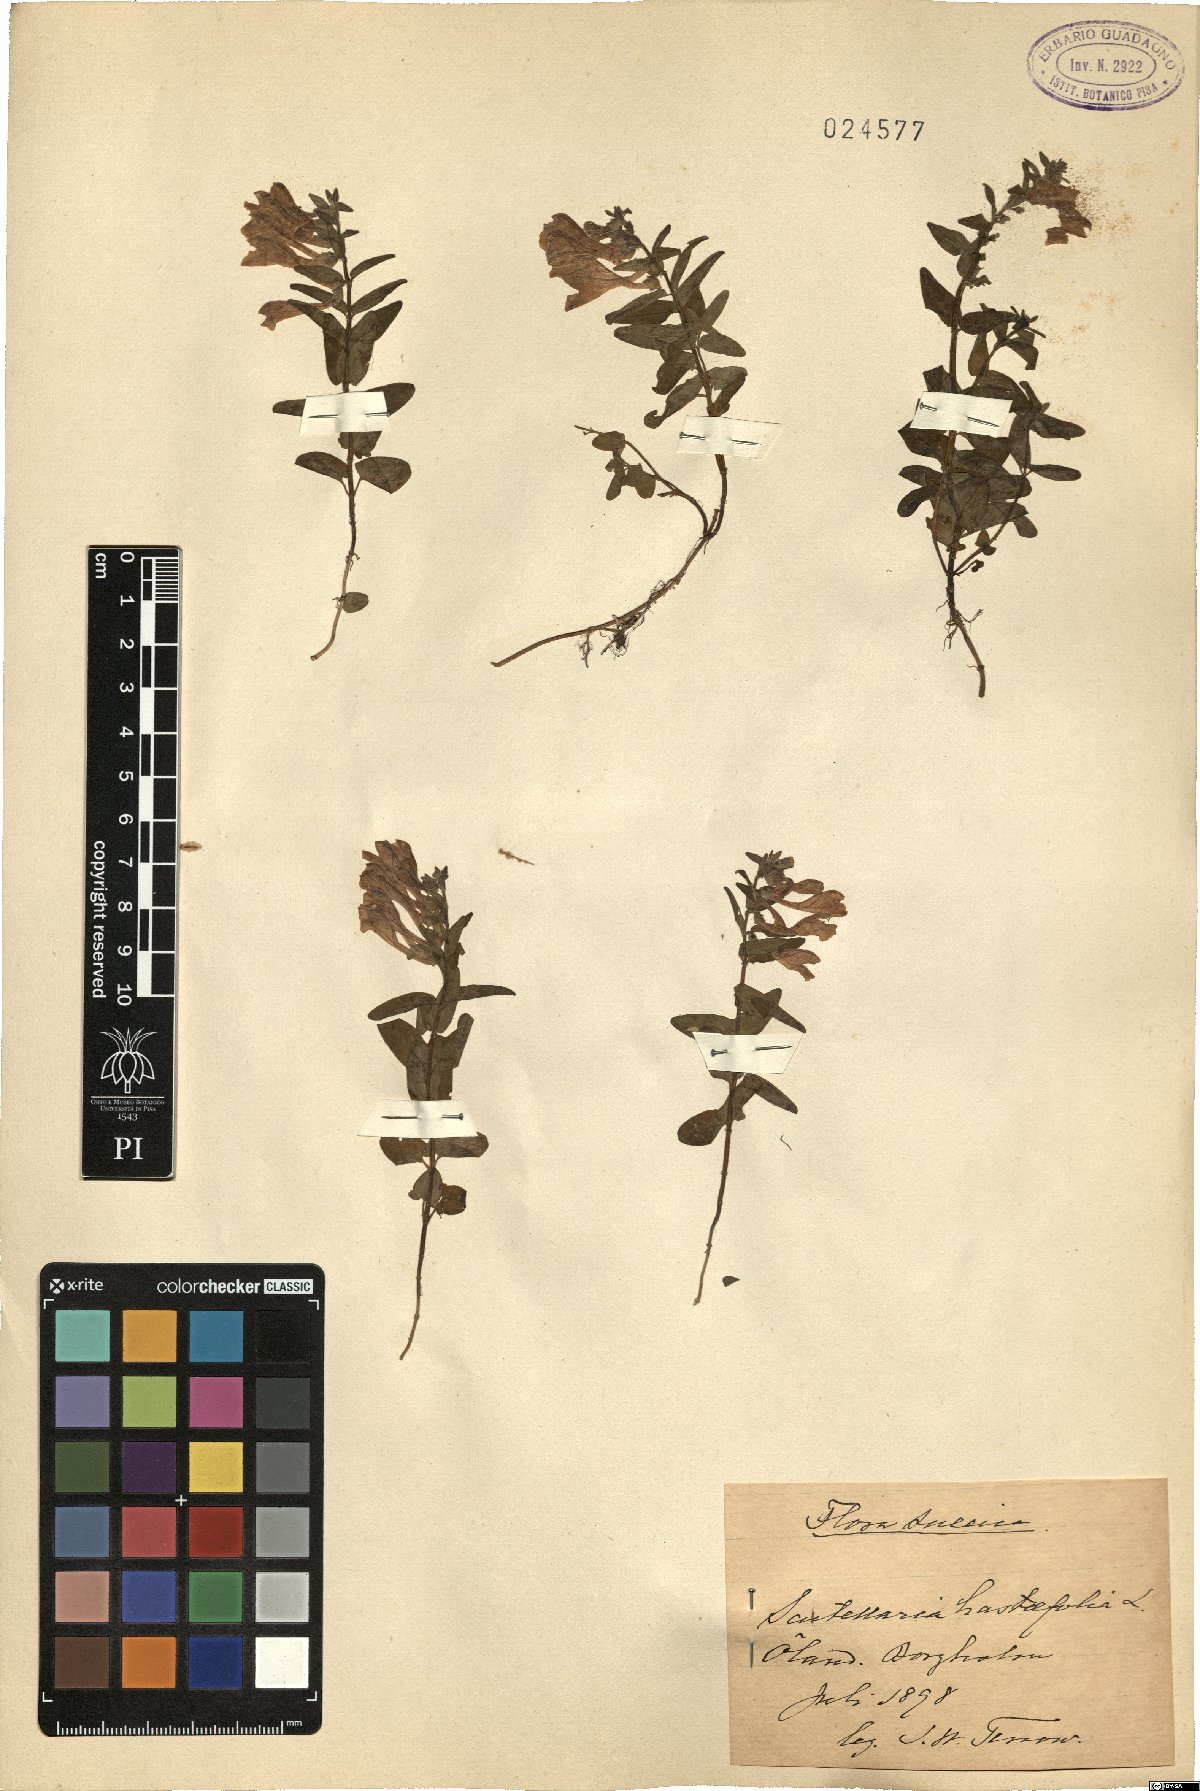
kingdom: Plantae
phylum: Tracheophyta
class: Magnoliopsida
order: Lamiales
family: Lamiaceae
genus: Scutellaria
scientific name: Scutellaria hastifolia
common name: Norfolk skullcap
